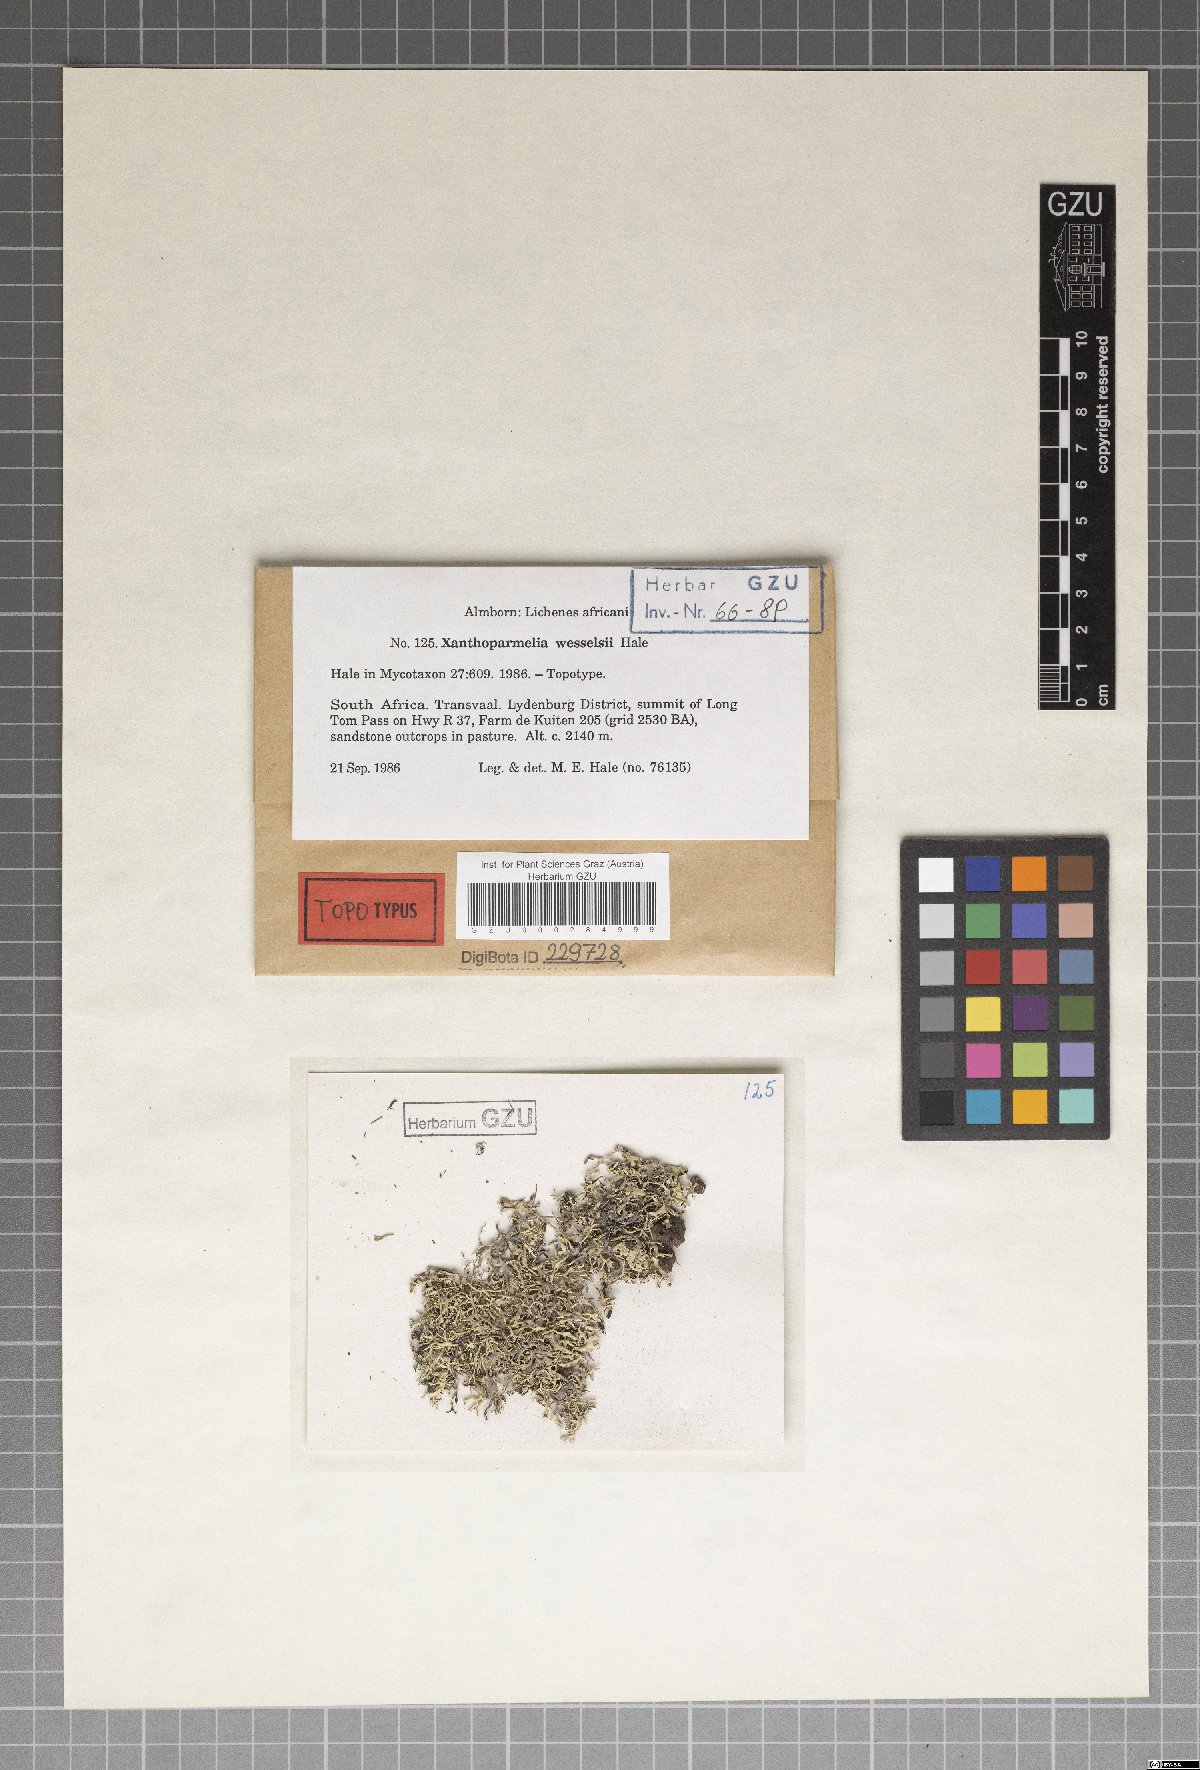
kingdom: Fungi
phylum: Ascomycota
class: Lecanoromycetes
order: Lecanorales
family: Parmeliaceae
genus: Xanthoparmelia
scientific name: Xanthoparmelia wesselsii
